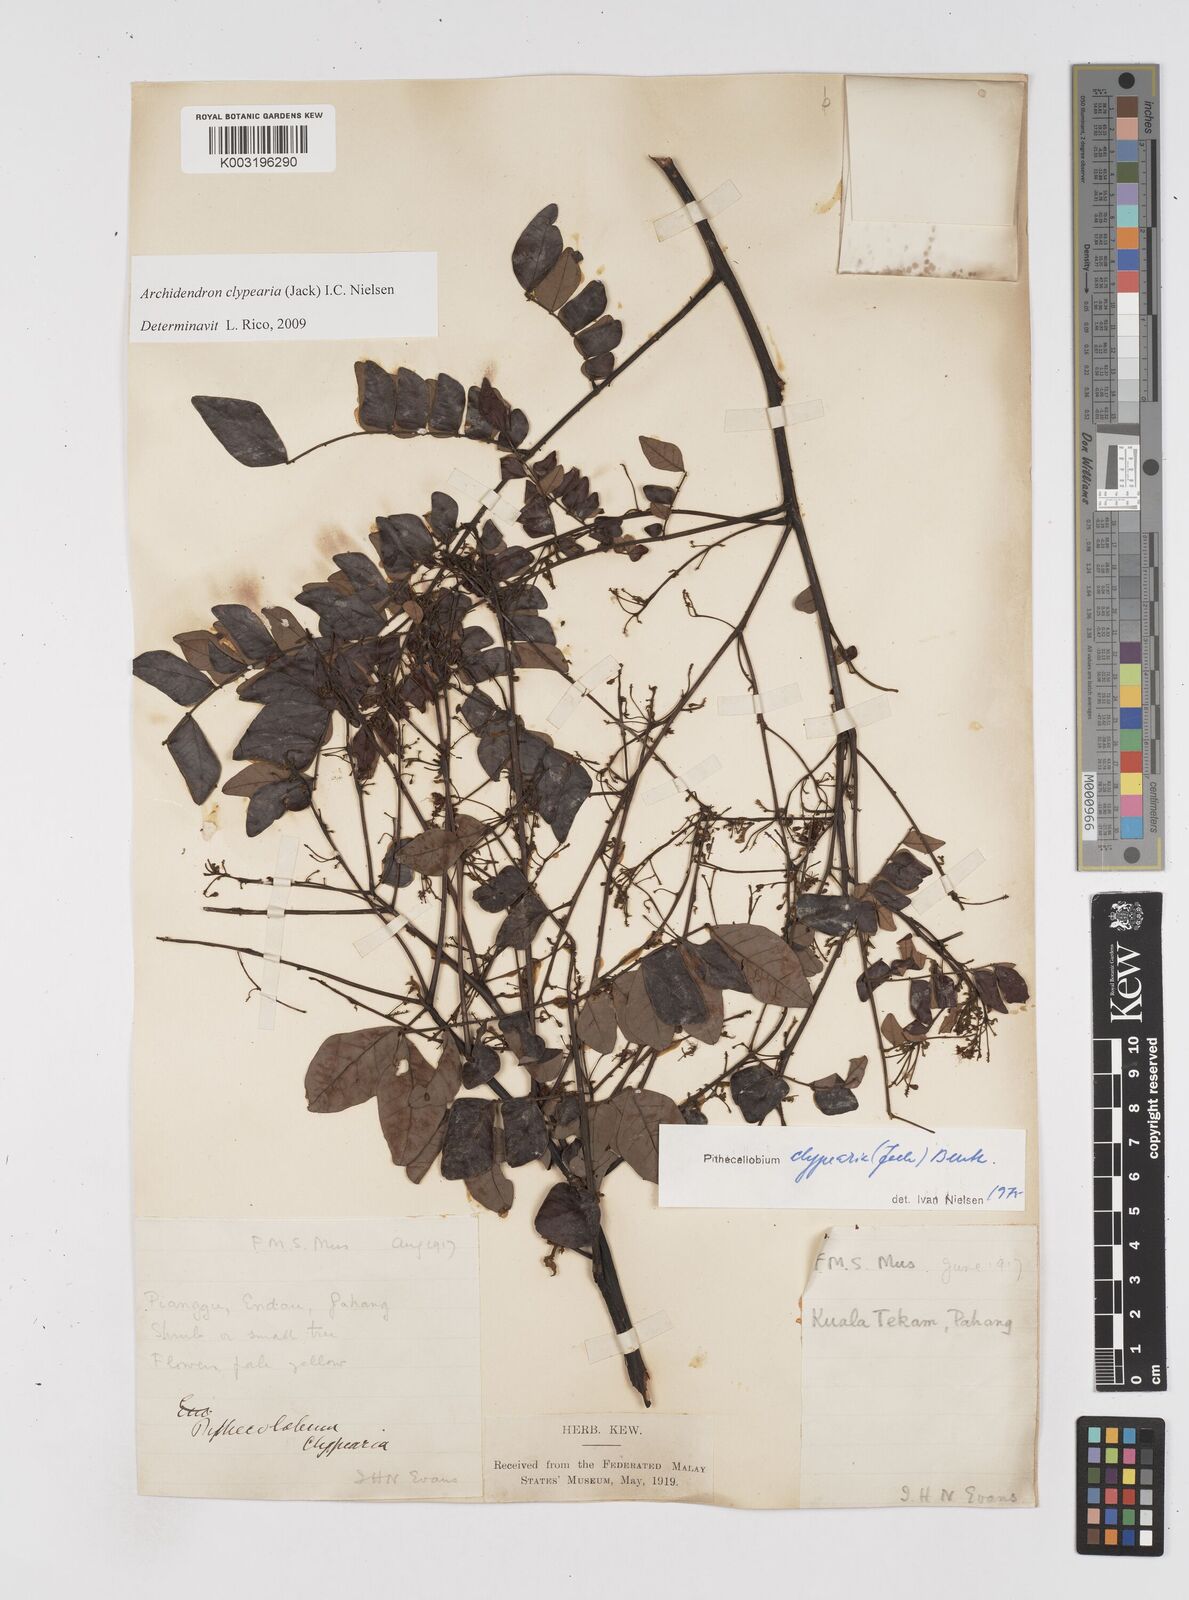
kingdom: Plantae
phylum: Tracheophyta
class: Magnoliopsida
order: Fabales
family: Fabaceae
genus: Archidendron
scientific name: Archidendron clypearia
